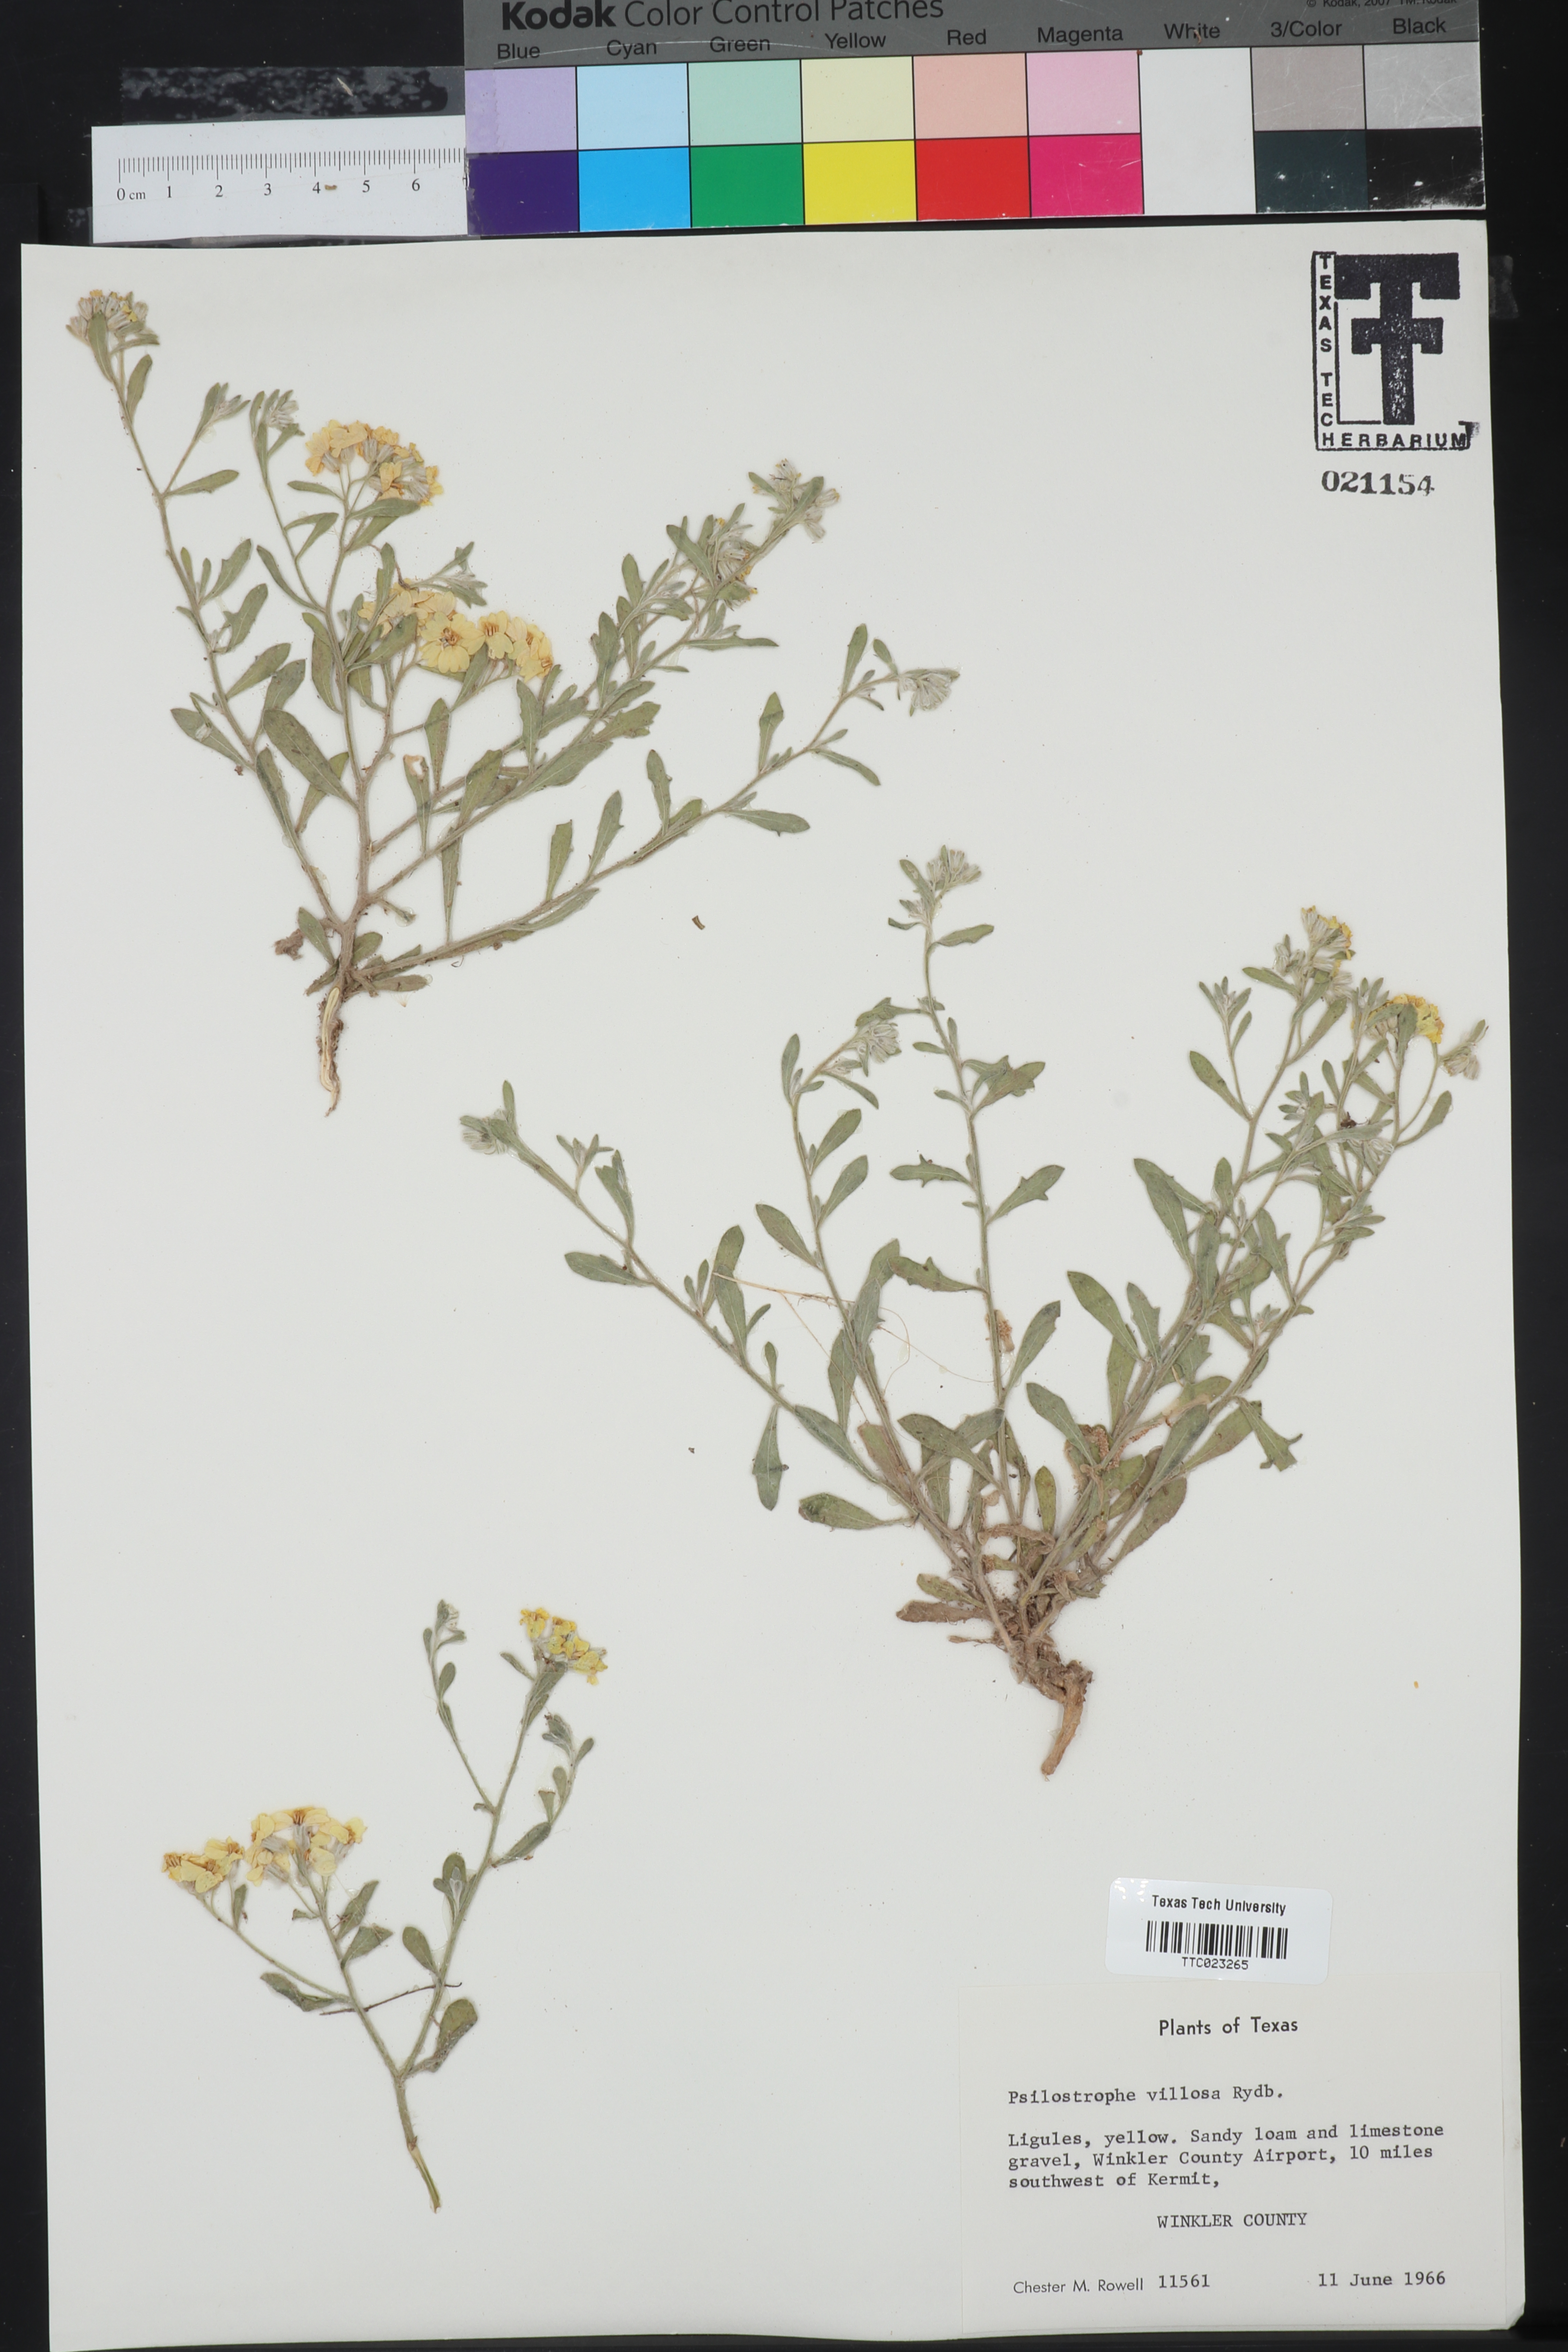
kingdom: Plantae
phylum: Tracheophyta
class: Magnoliopsida
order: Asterales
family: Asteraceae
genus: Psilostrophe
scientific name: Psilostrophe villosa
